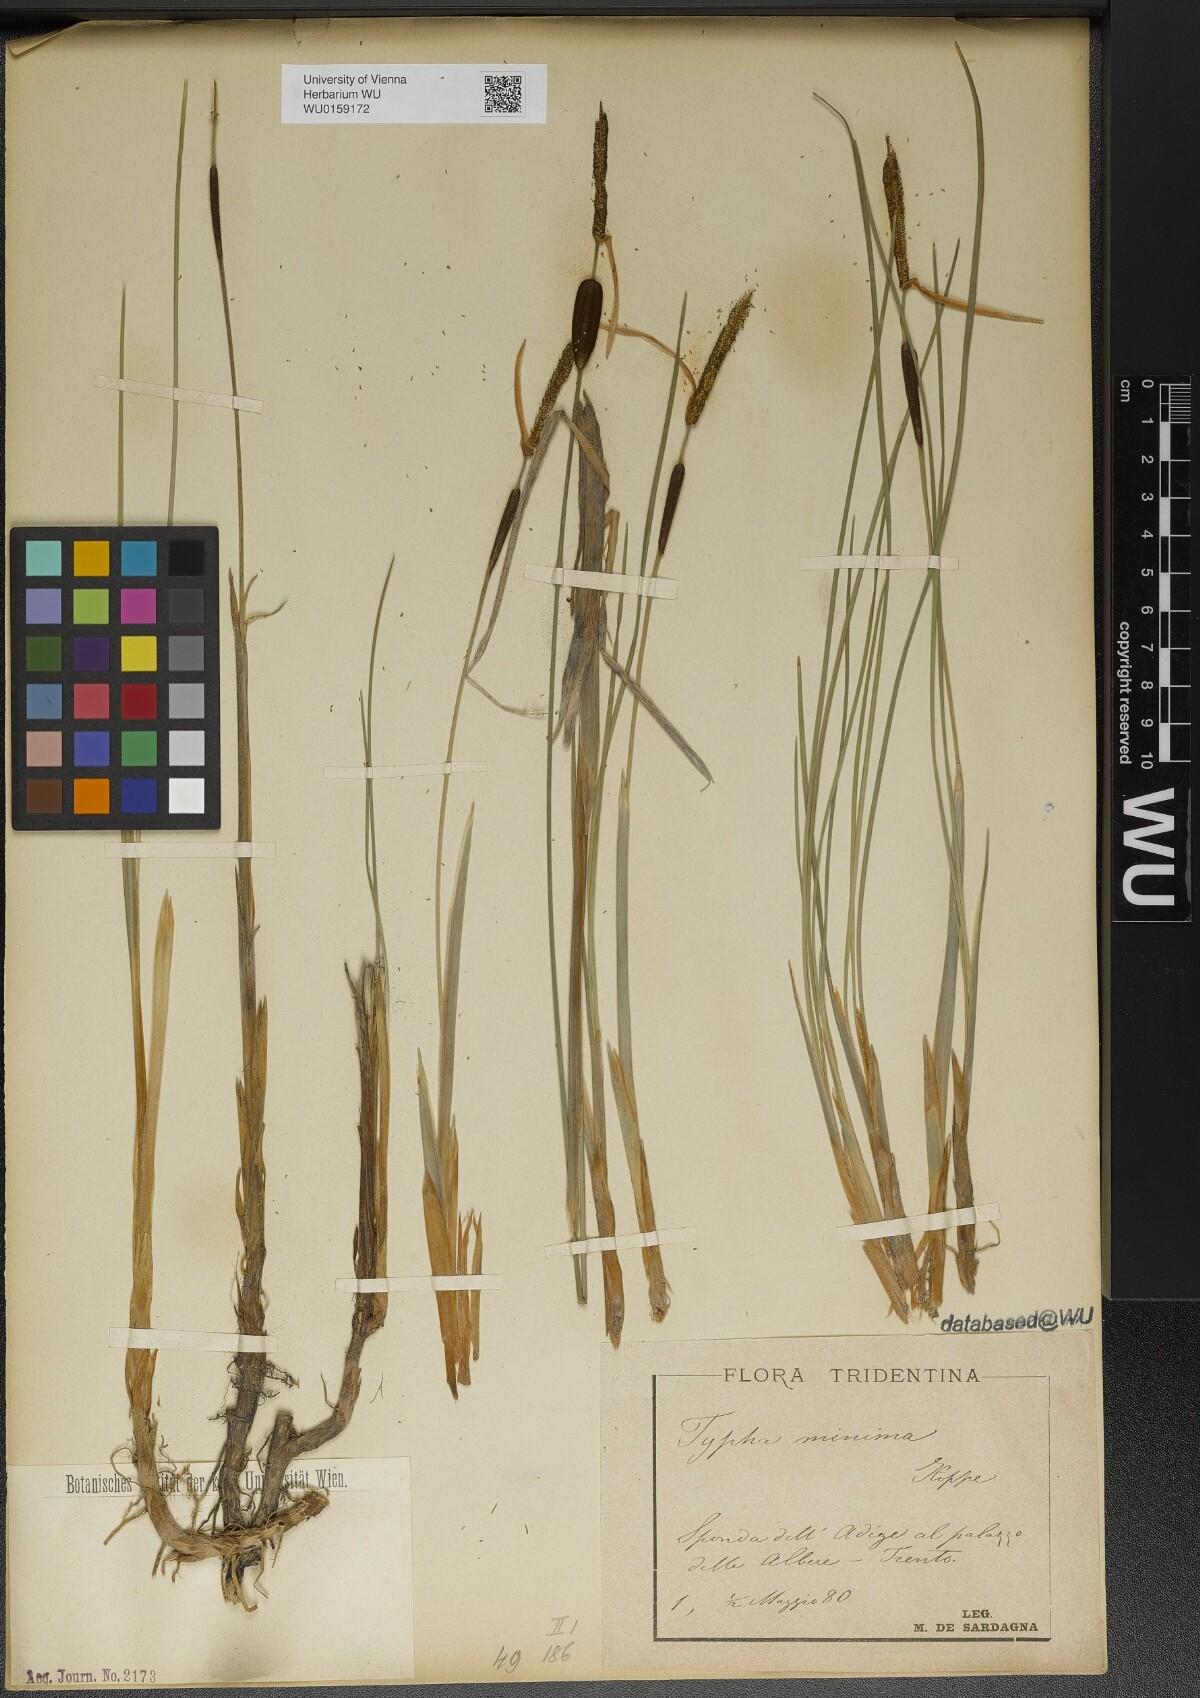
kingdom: Plantae
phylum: Tracheophyta
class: Liliopsida
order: Poales
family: Typhaceae
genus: Typha
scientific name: Typha minima
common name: Dwarf bulrush
